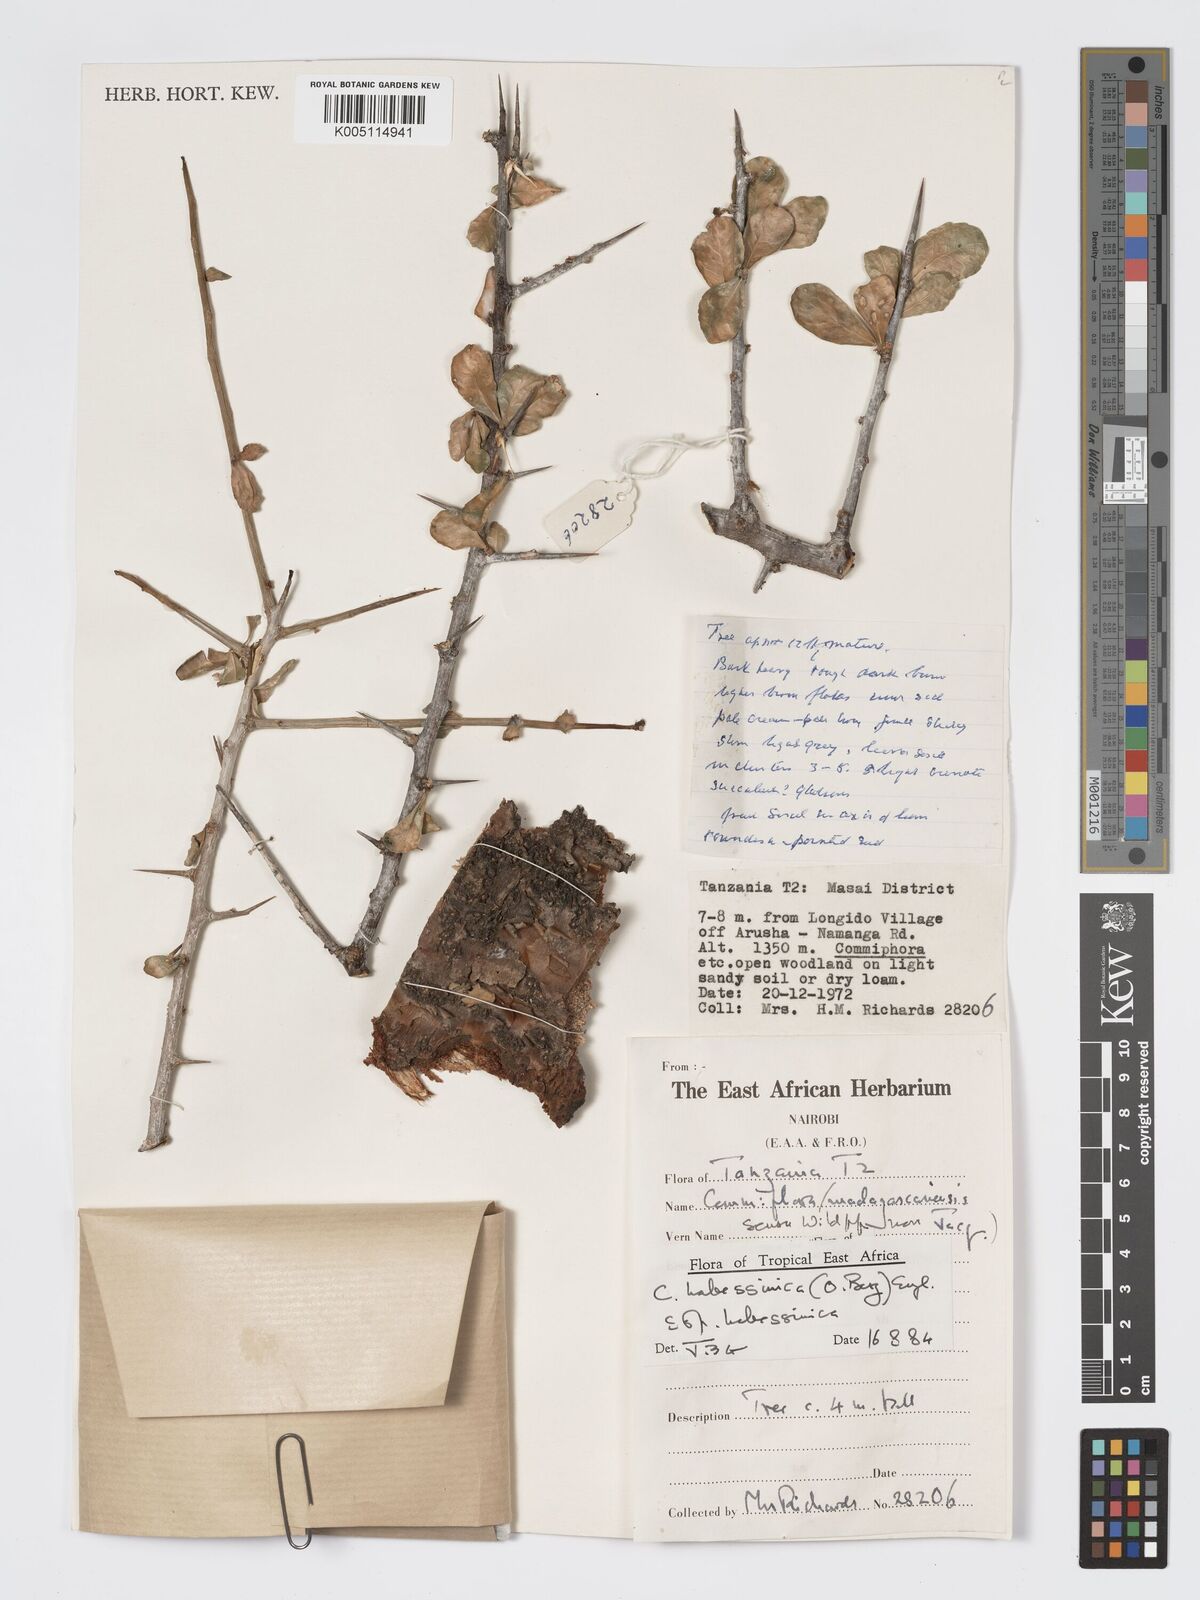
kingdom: Plantae
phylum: Tracheophyta
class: Magnoliopsida
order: Sapindales
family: Burseraceae
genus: Commiphora
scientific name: Commiphora kua
